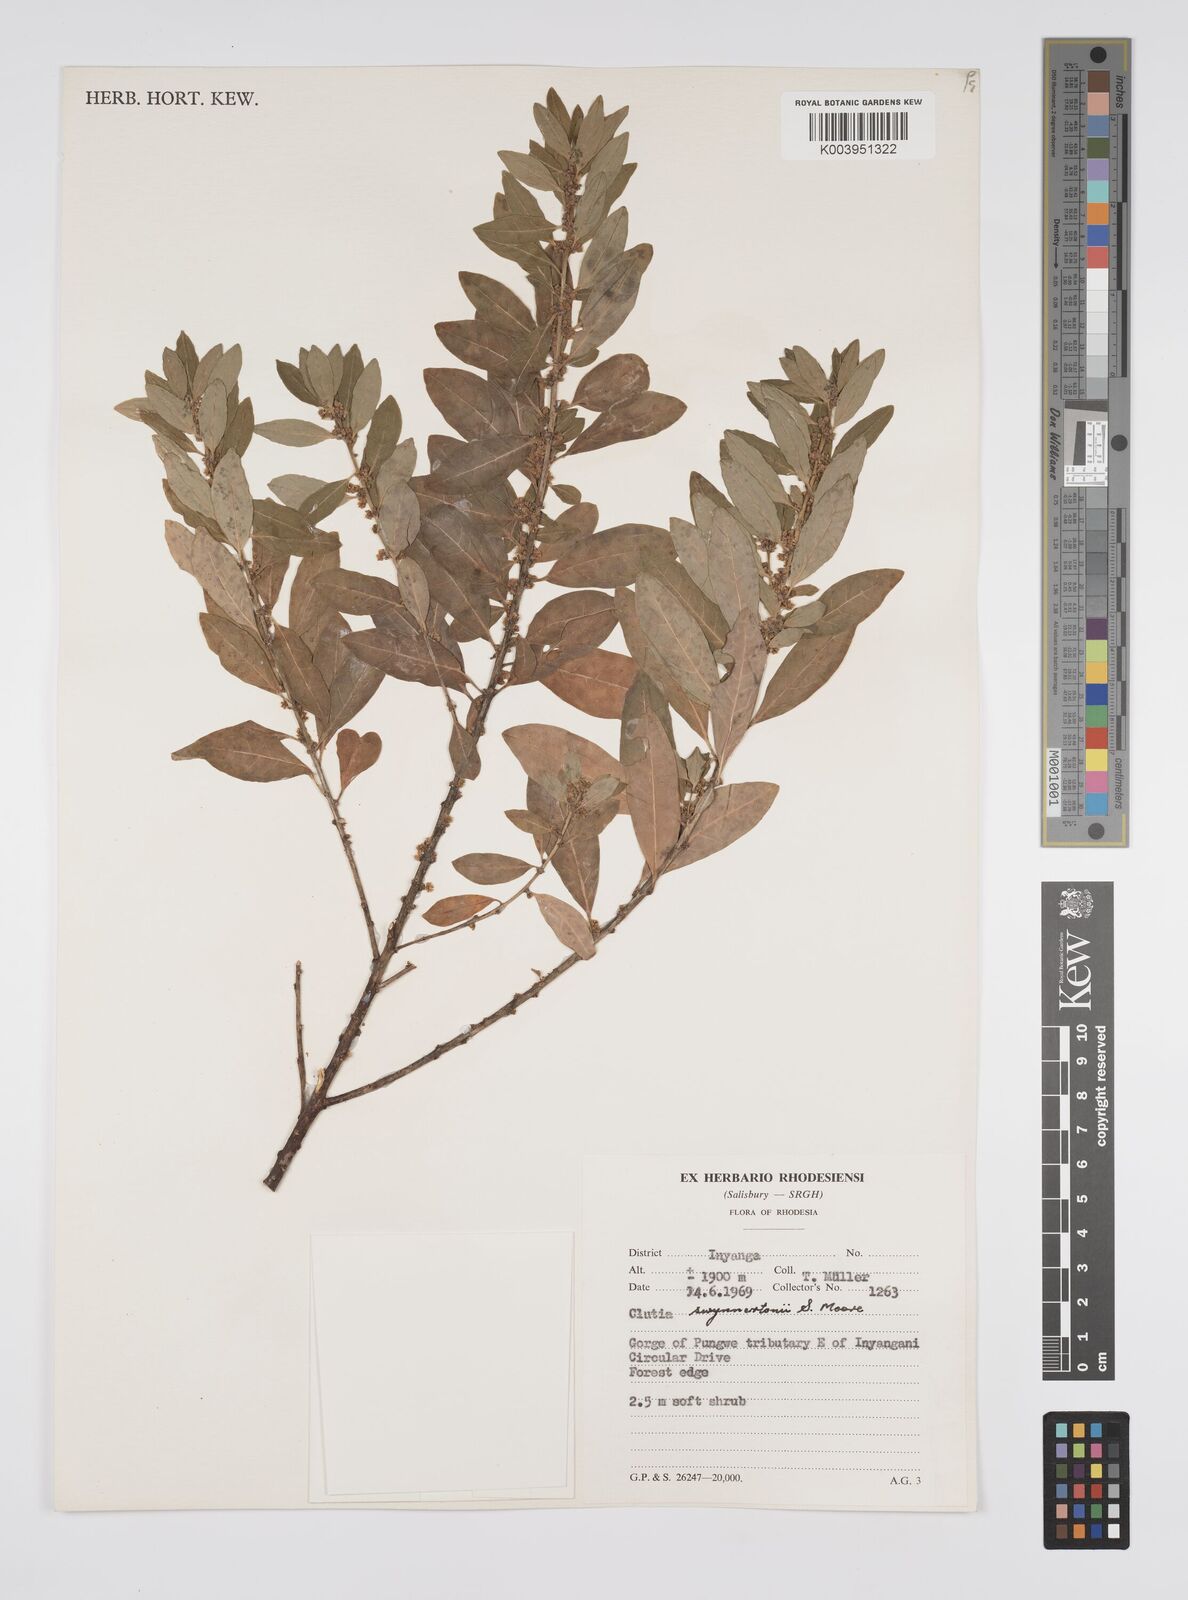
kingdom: Plantae
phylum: Tracheophyta
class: Magnoliopsida
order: Malpighiales
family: Peraceae
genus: Clutia
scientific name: Clutia swynnertonii
